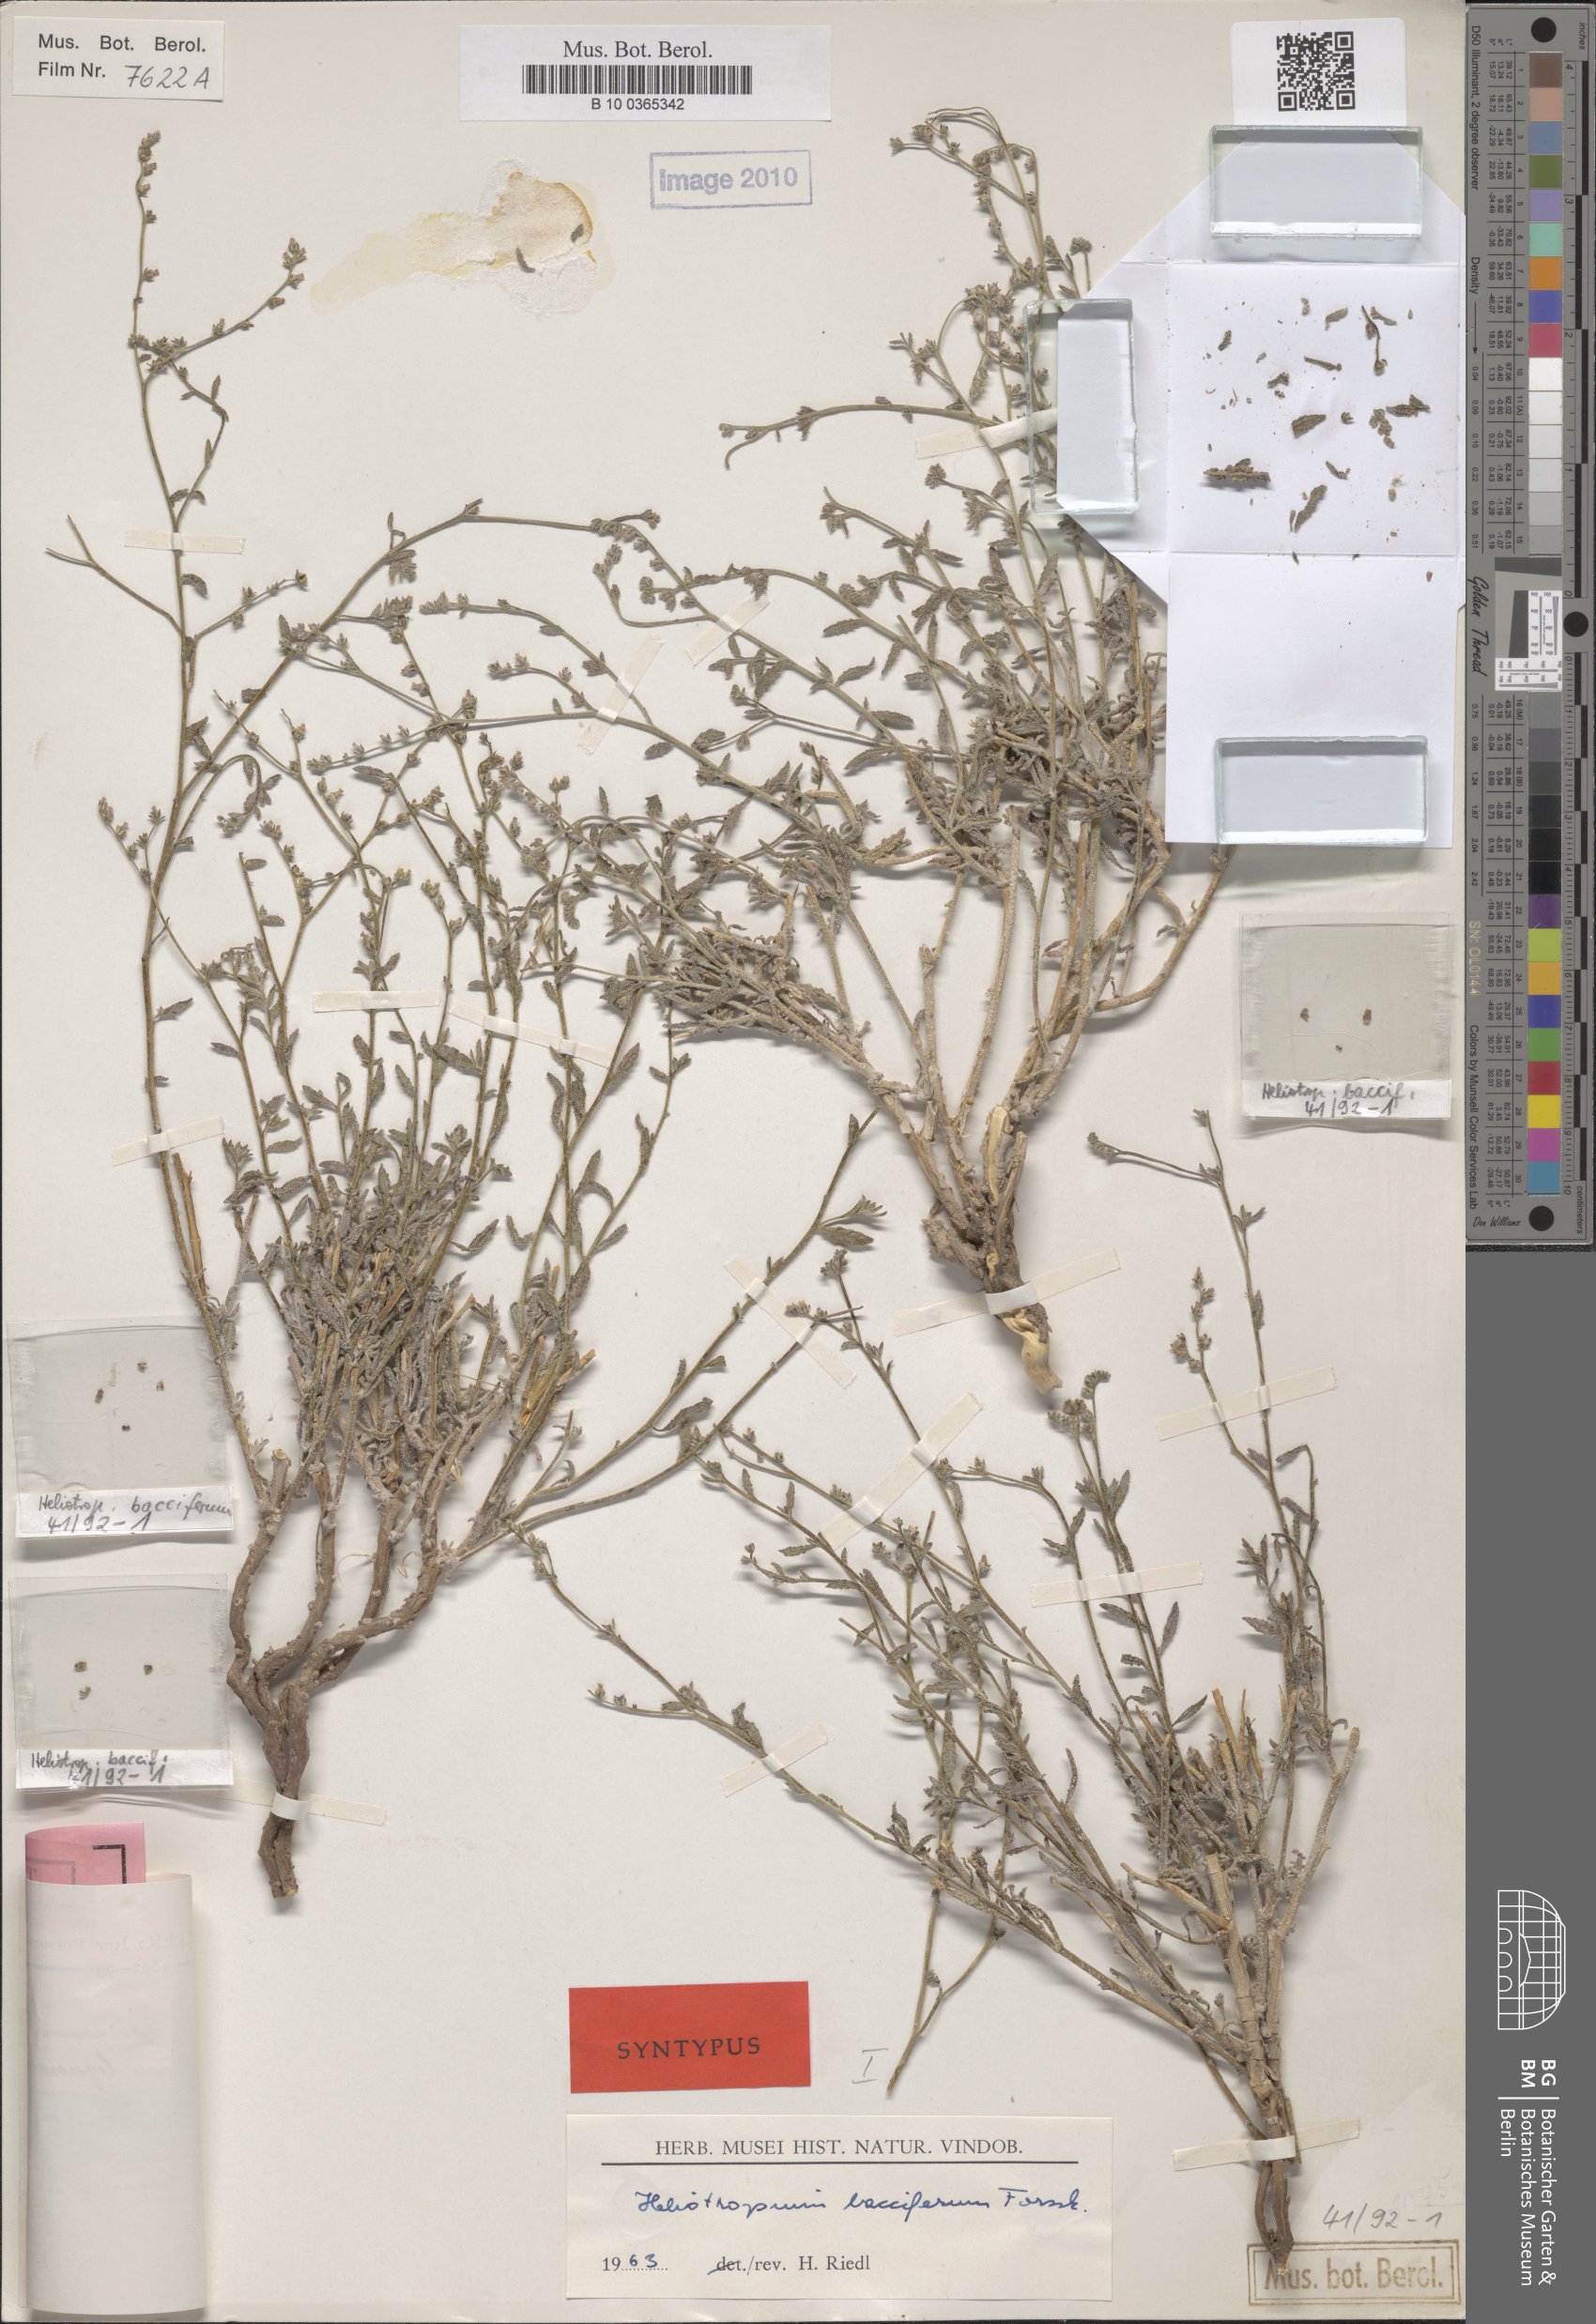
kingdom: Plantae
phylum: Tracheophyta
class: Magnoliopsida
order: Boraginales
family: Heliotropiaceae
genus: Heliotropium
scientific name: Heliotropium bacciferum
